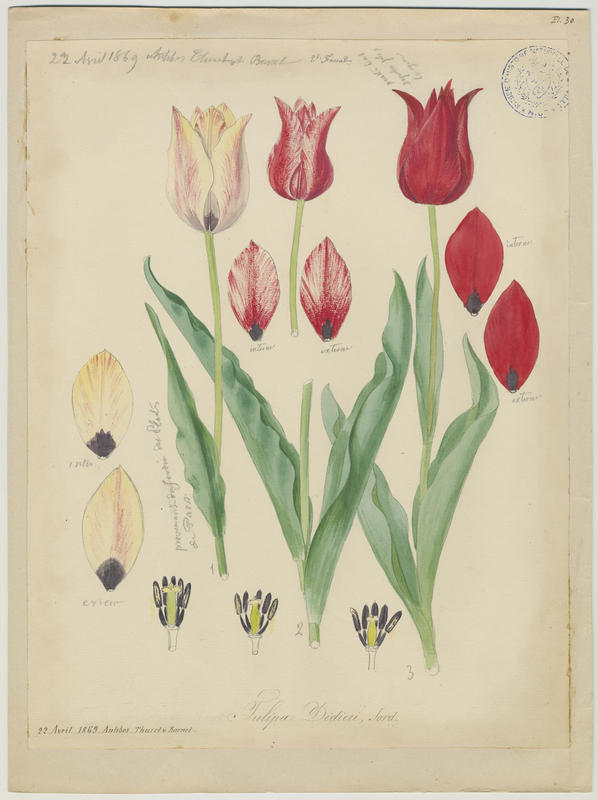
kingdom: Plantae
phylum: Tracheophyta
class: Liliopsida
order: Liliales
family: Liliaceae
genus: Tulipa
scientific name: Tulipa gesneriana
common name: Garden tulip
